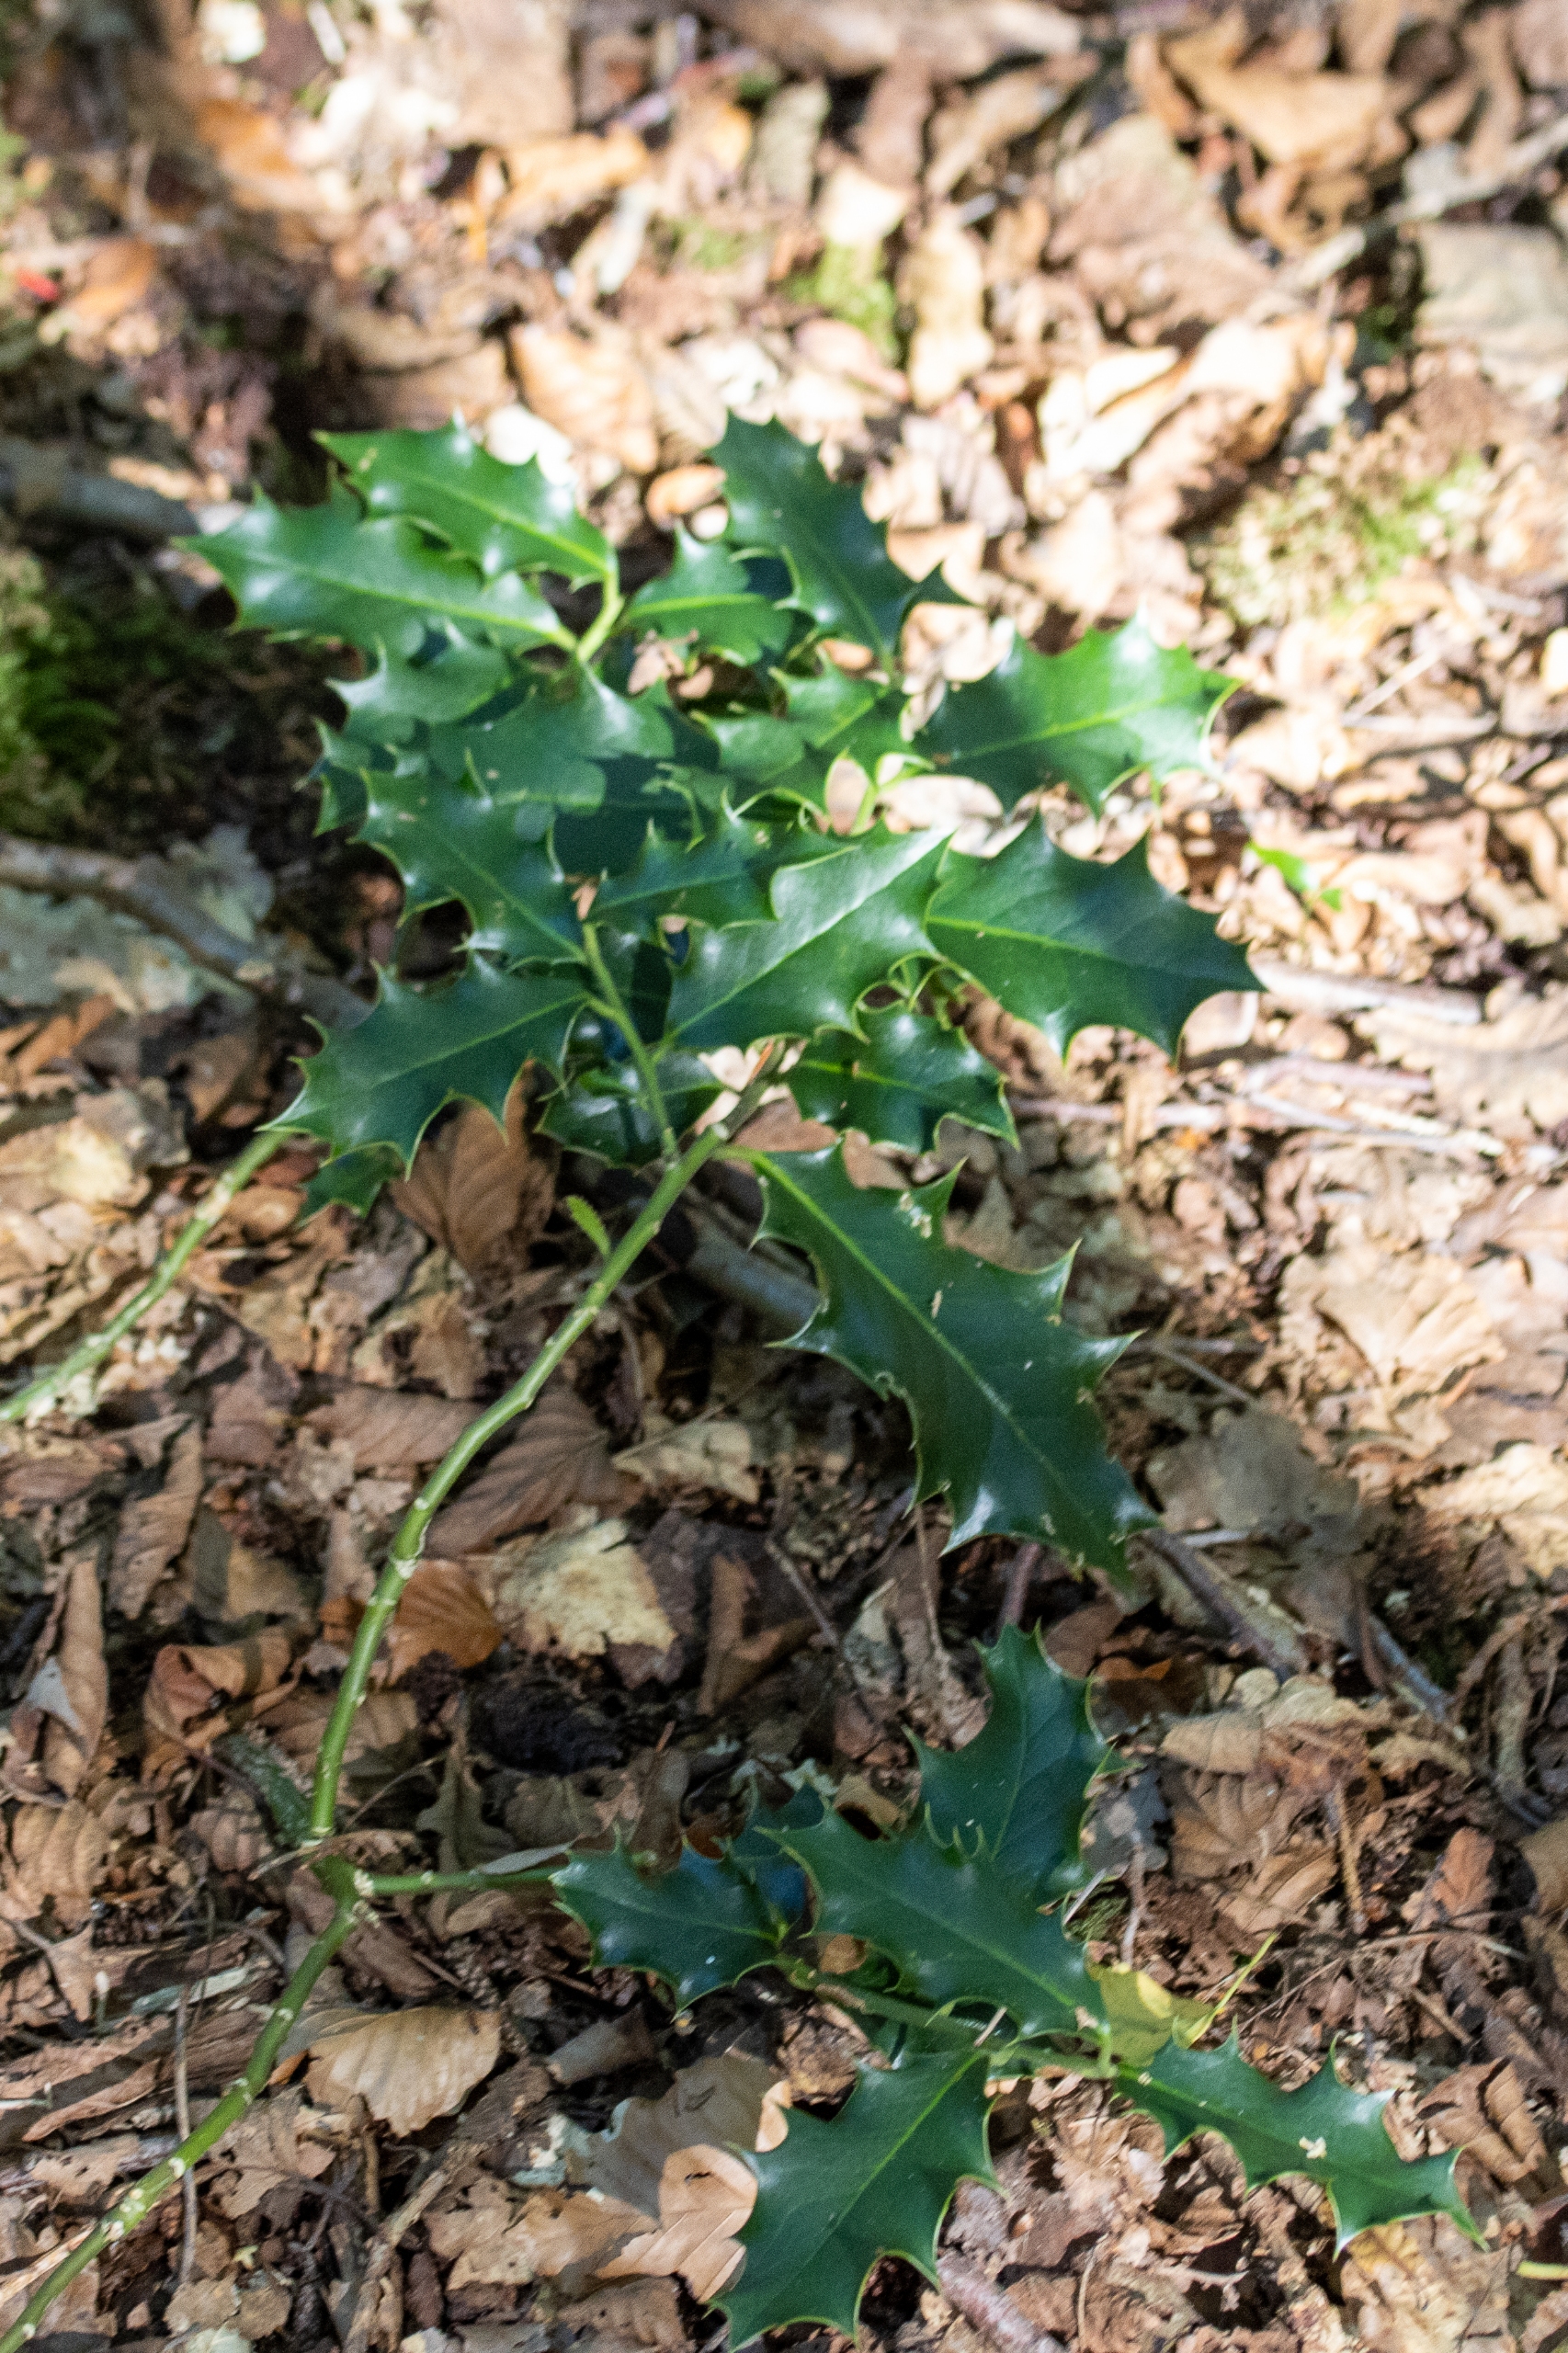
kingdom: Plantae
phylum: Tracheophyta
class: Magnoliopsida
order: Aquifoliales
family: Aquifoliaceae
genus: Ilex
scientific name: Ilex aquifolium
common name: Kristtorn
